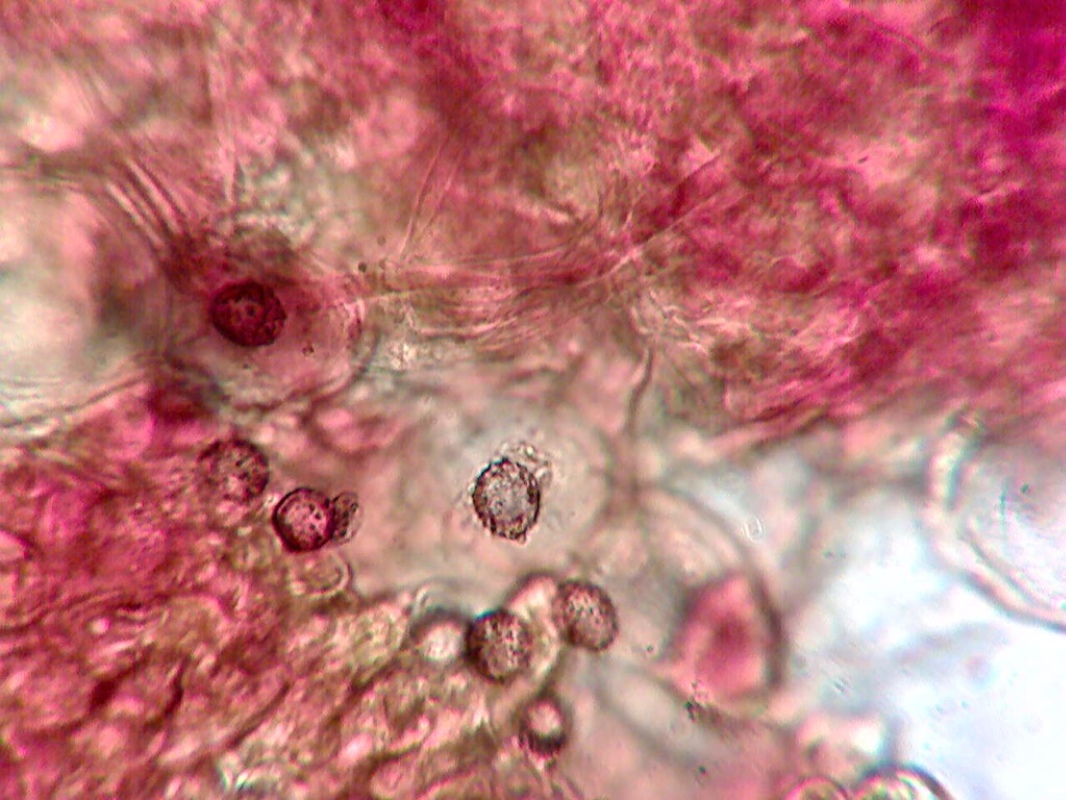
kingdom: Fungi
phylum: Basidiomycota
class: Agaricomycetes
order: Russulales
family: Russulaceae
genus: Russula
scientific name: Russula maculata
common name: plettet skørhat
